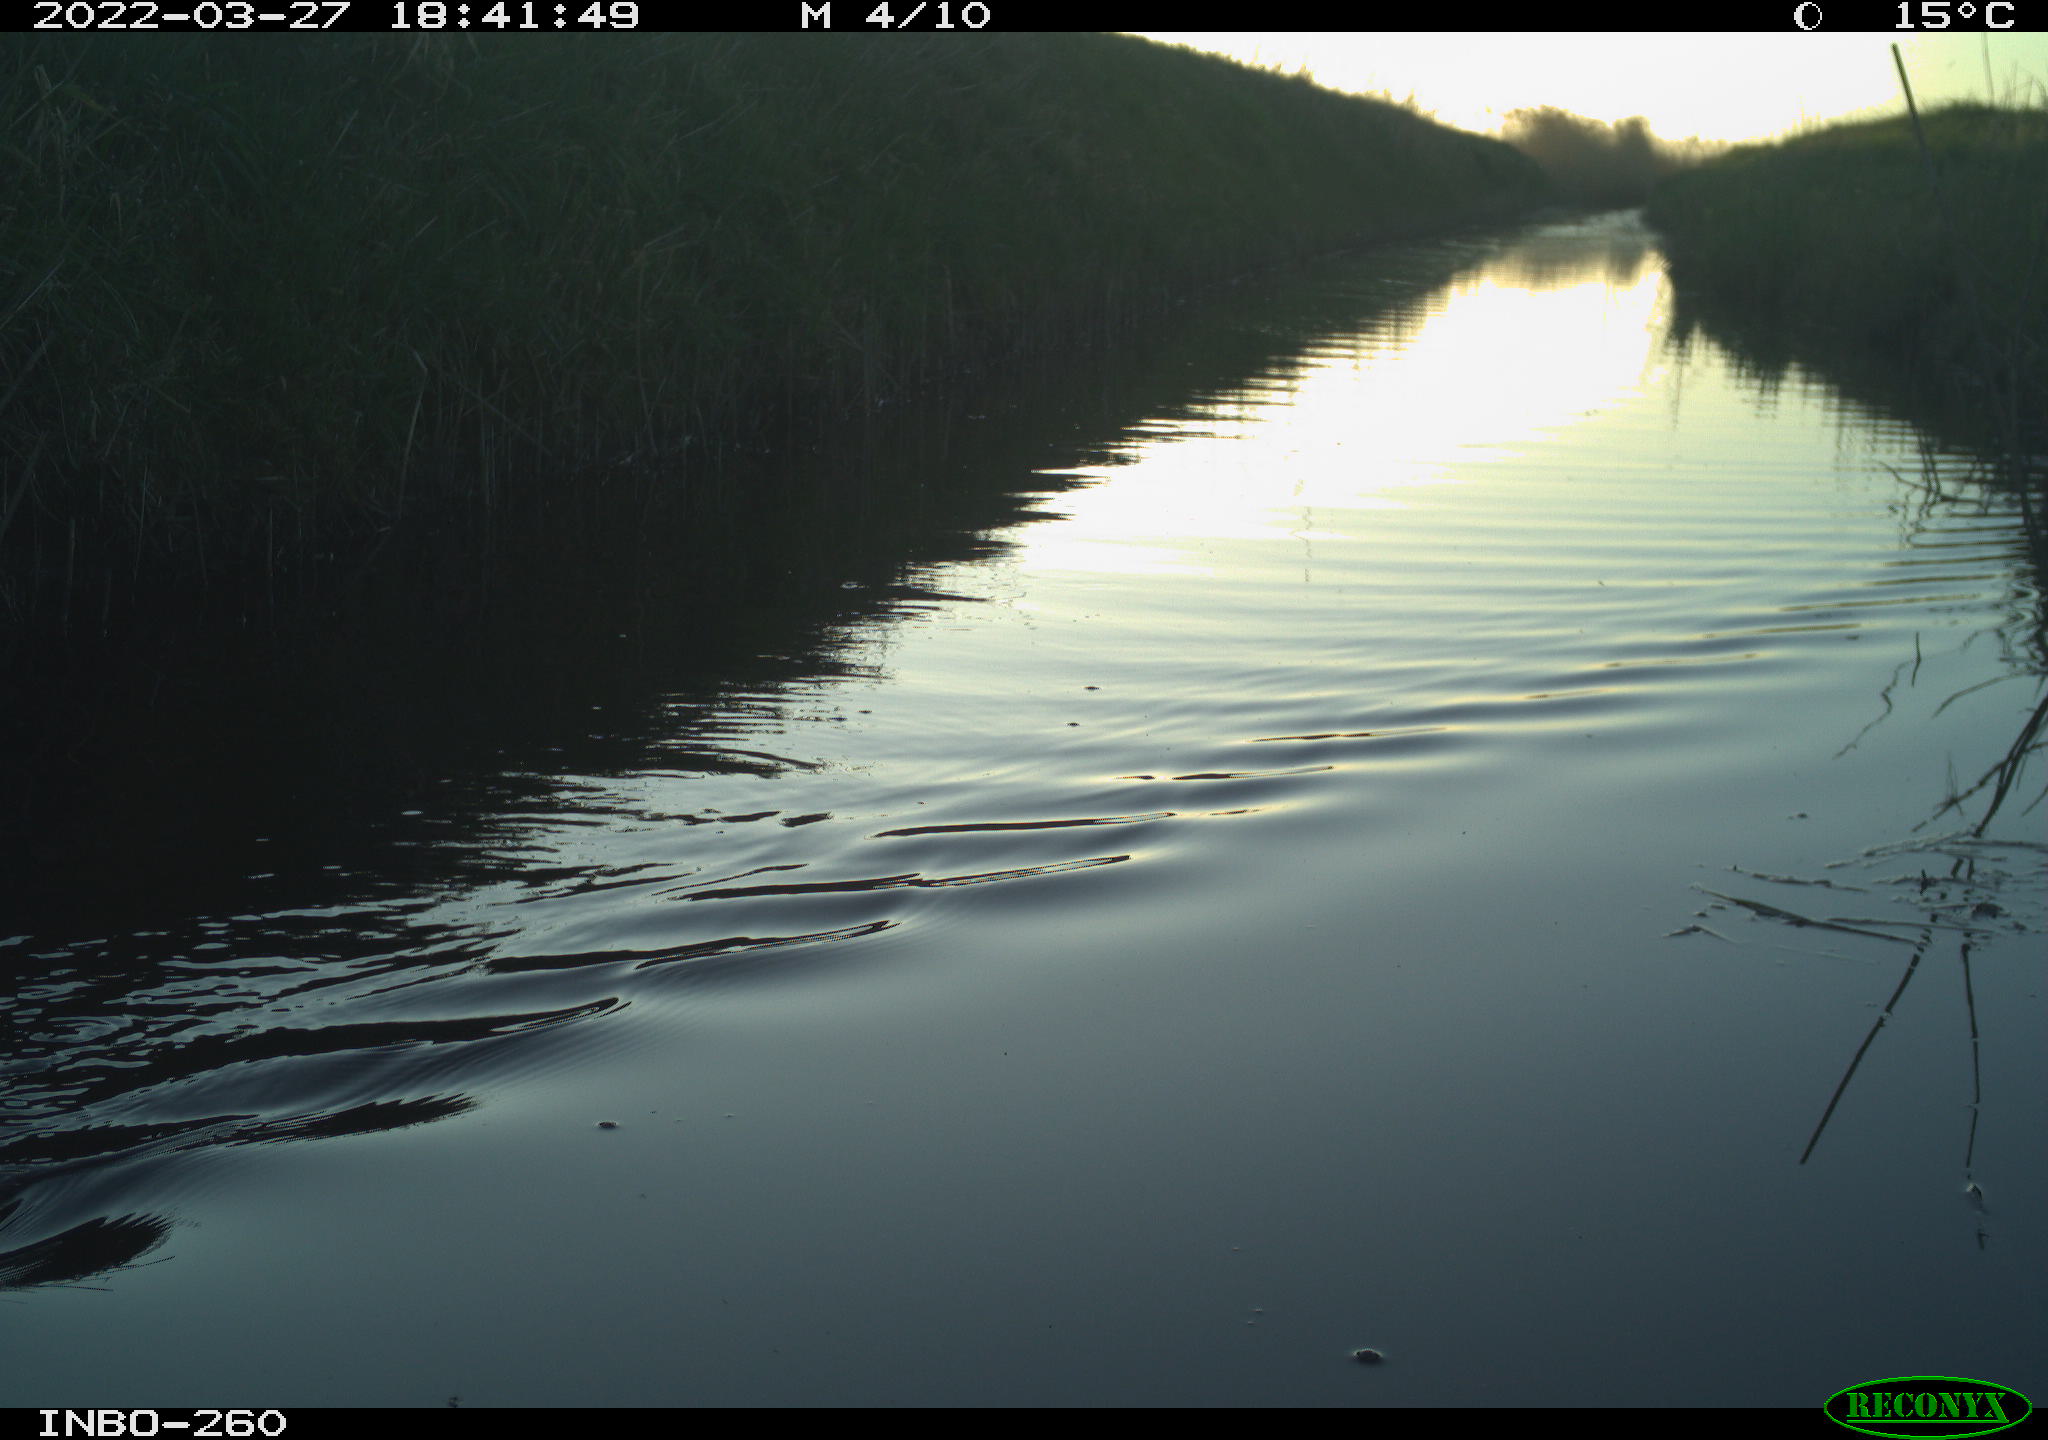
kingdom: Animalia
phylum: Chordata
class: Aves
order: Gruiformes
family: Rallidae
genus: Fulica
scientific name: Fulica atra
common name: Eurasian coot
